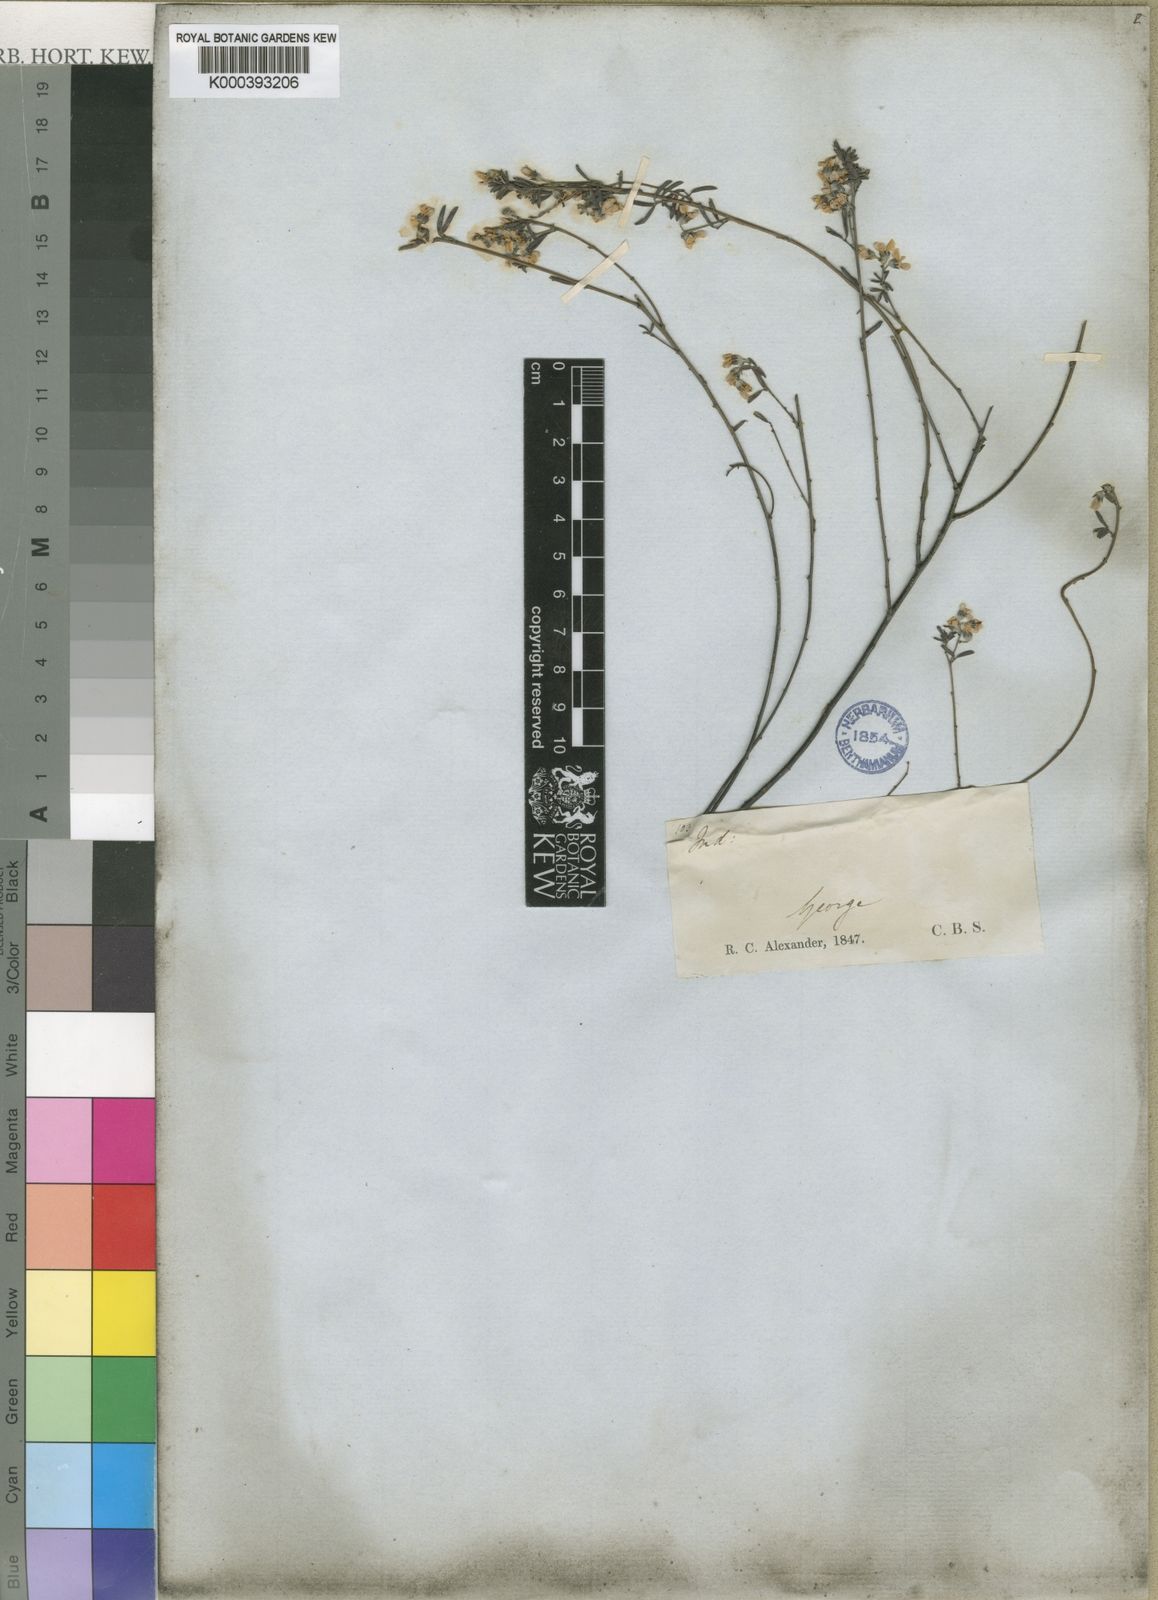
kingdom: Plantae
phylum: Tracheophyta
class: Magnoliopsida
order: Fabales
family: Fabaceae
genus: Indigofera
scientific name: Indigofera concava
